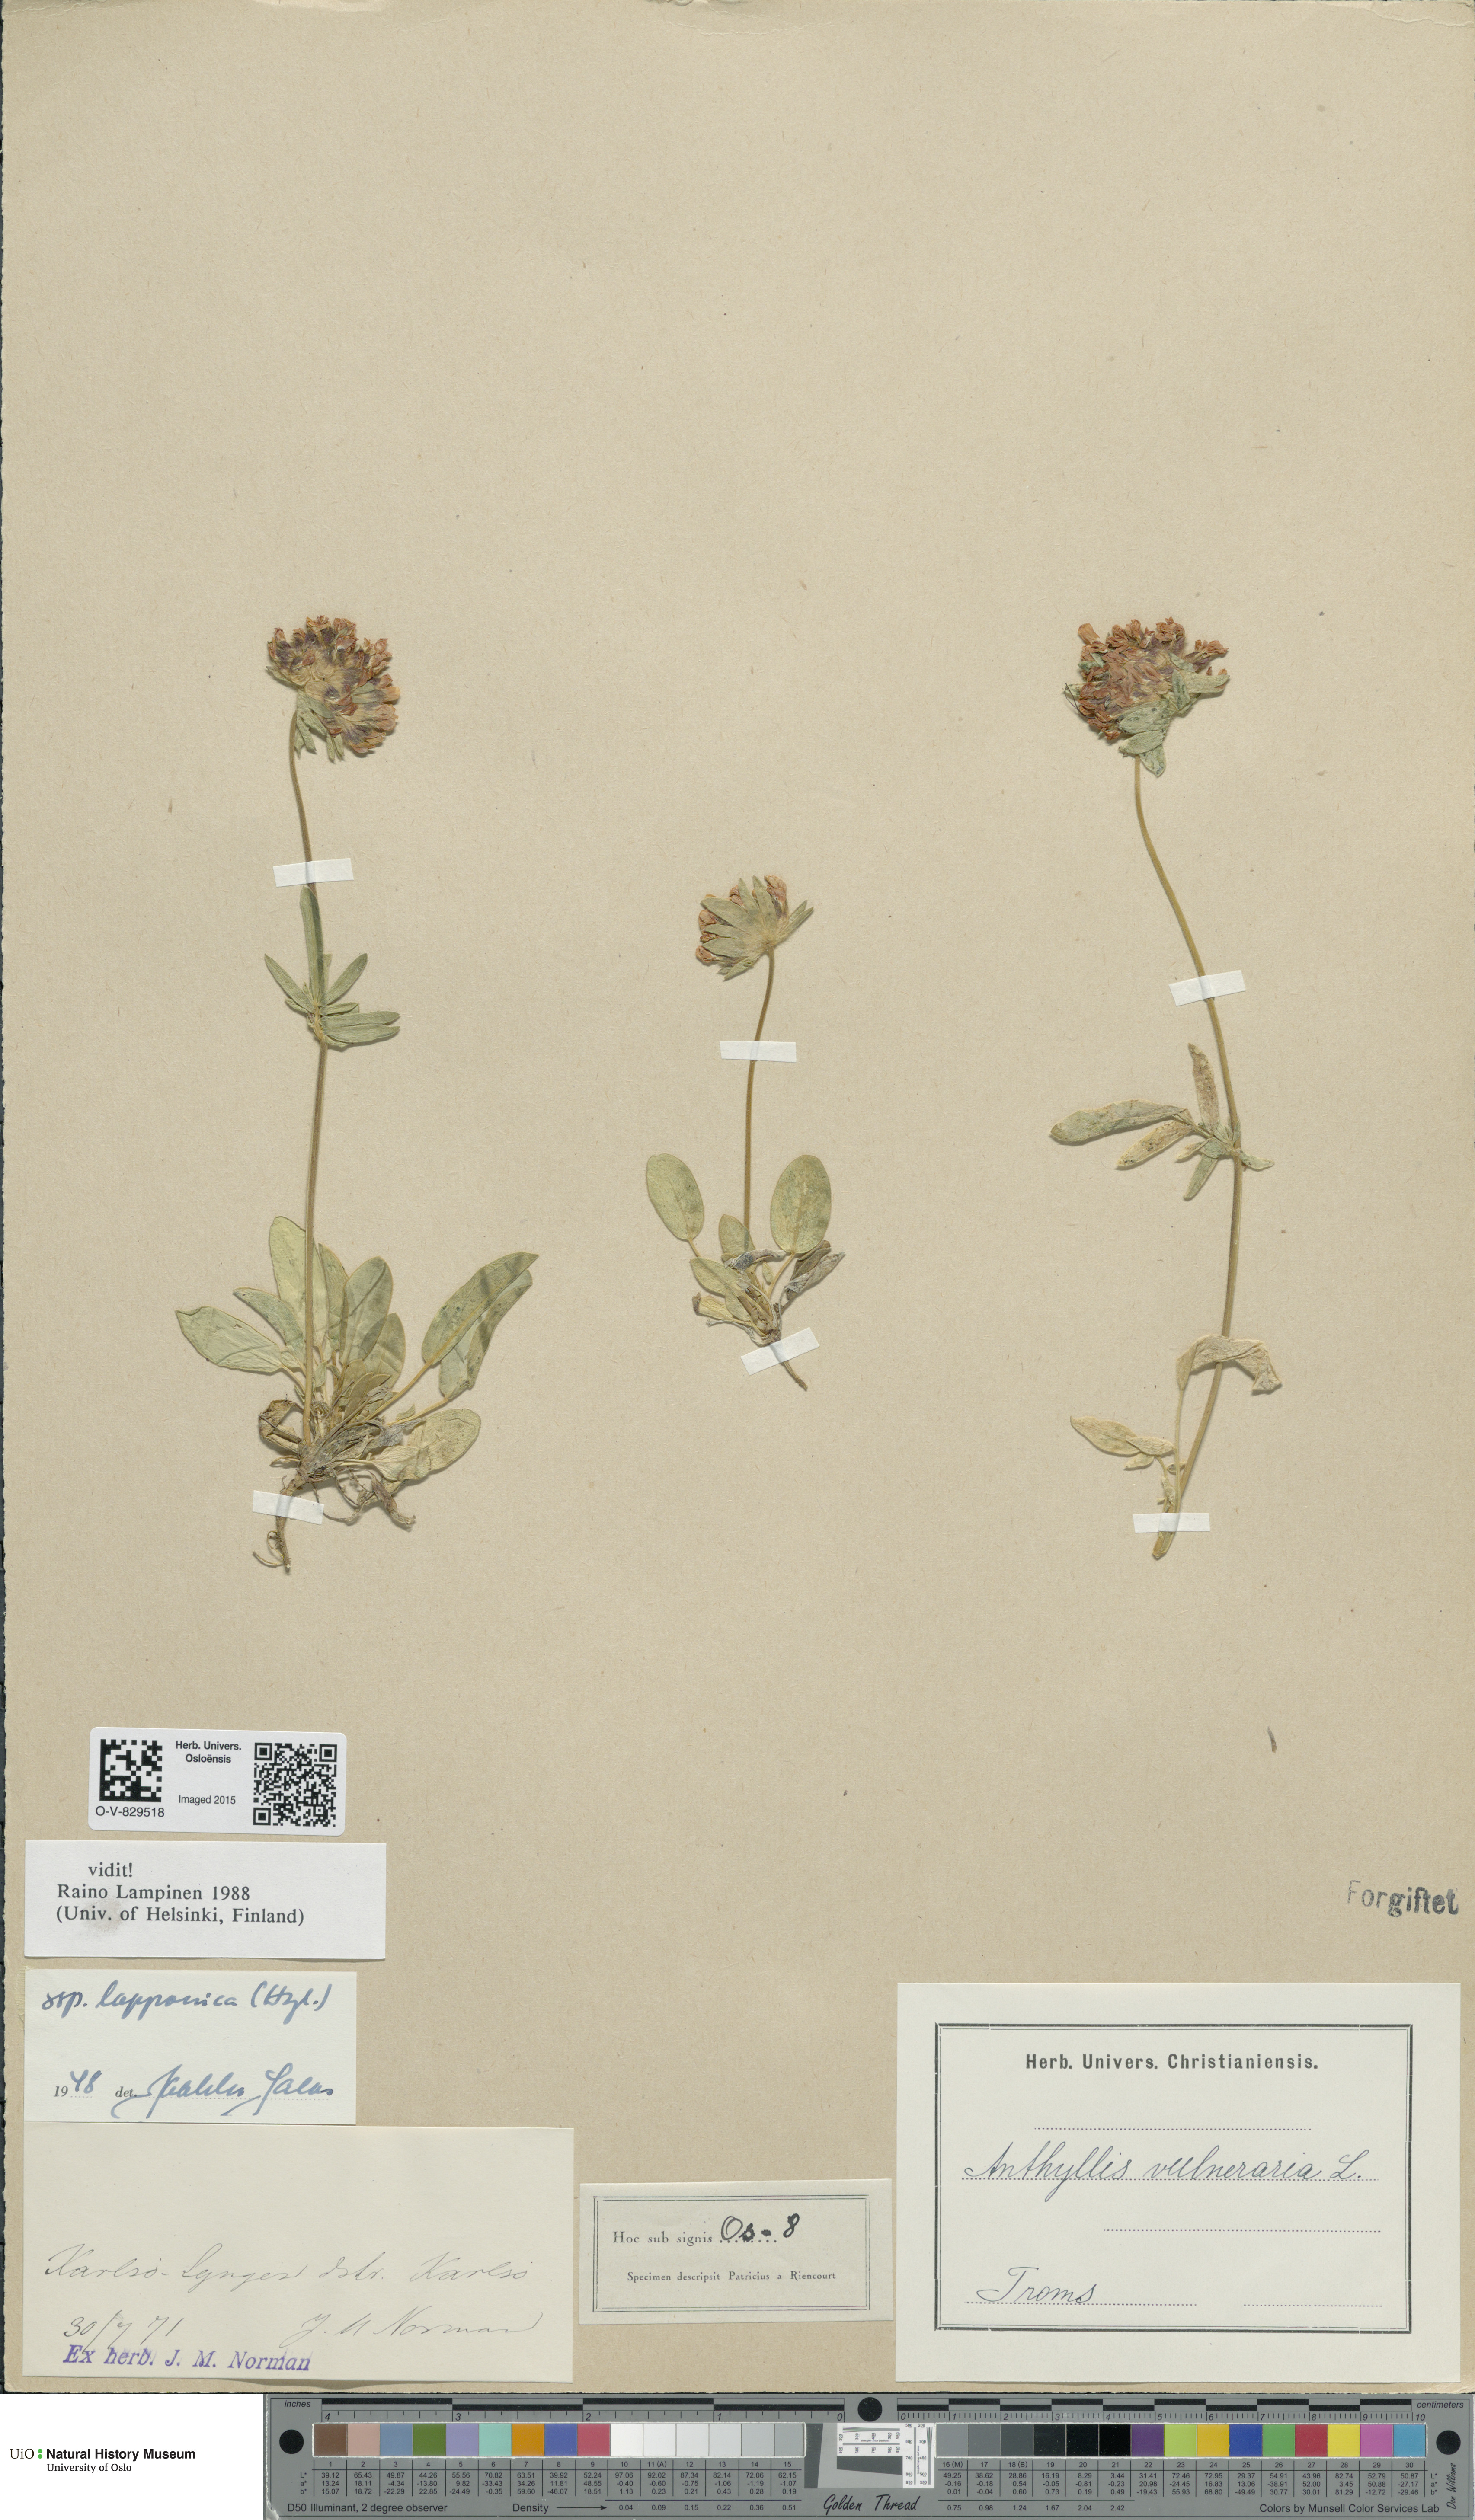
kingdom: Plantae
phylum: Tracheophyta
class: Magnoliopsida
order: Fabales
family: Fabaceae
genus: Anthyllis
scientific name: Anthyllis vulneraria
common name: Kidney vetch
